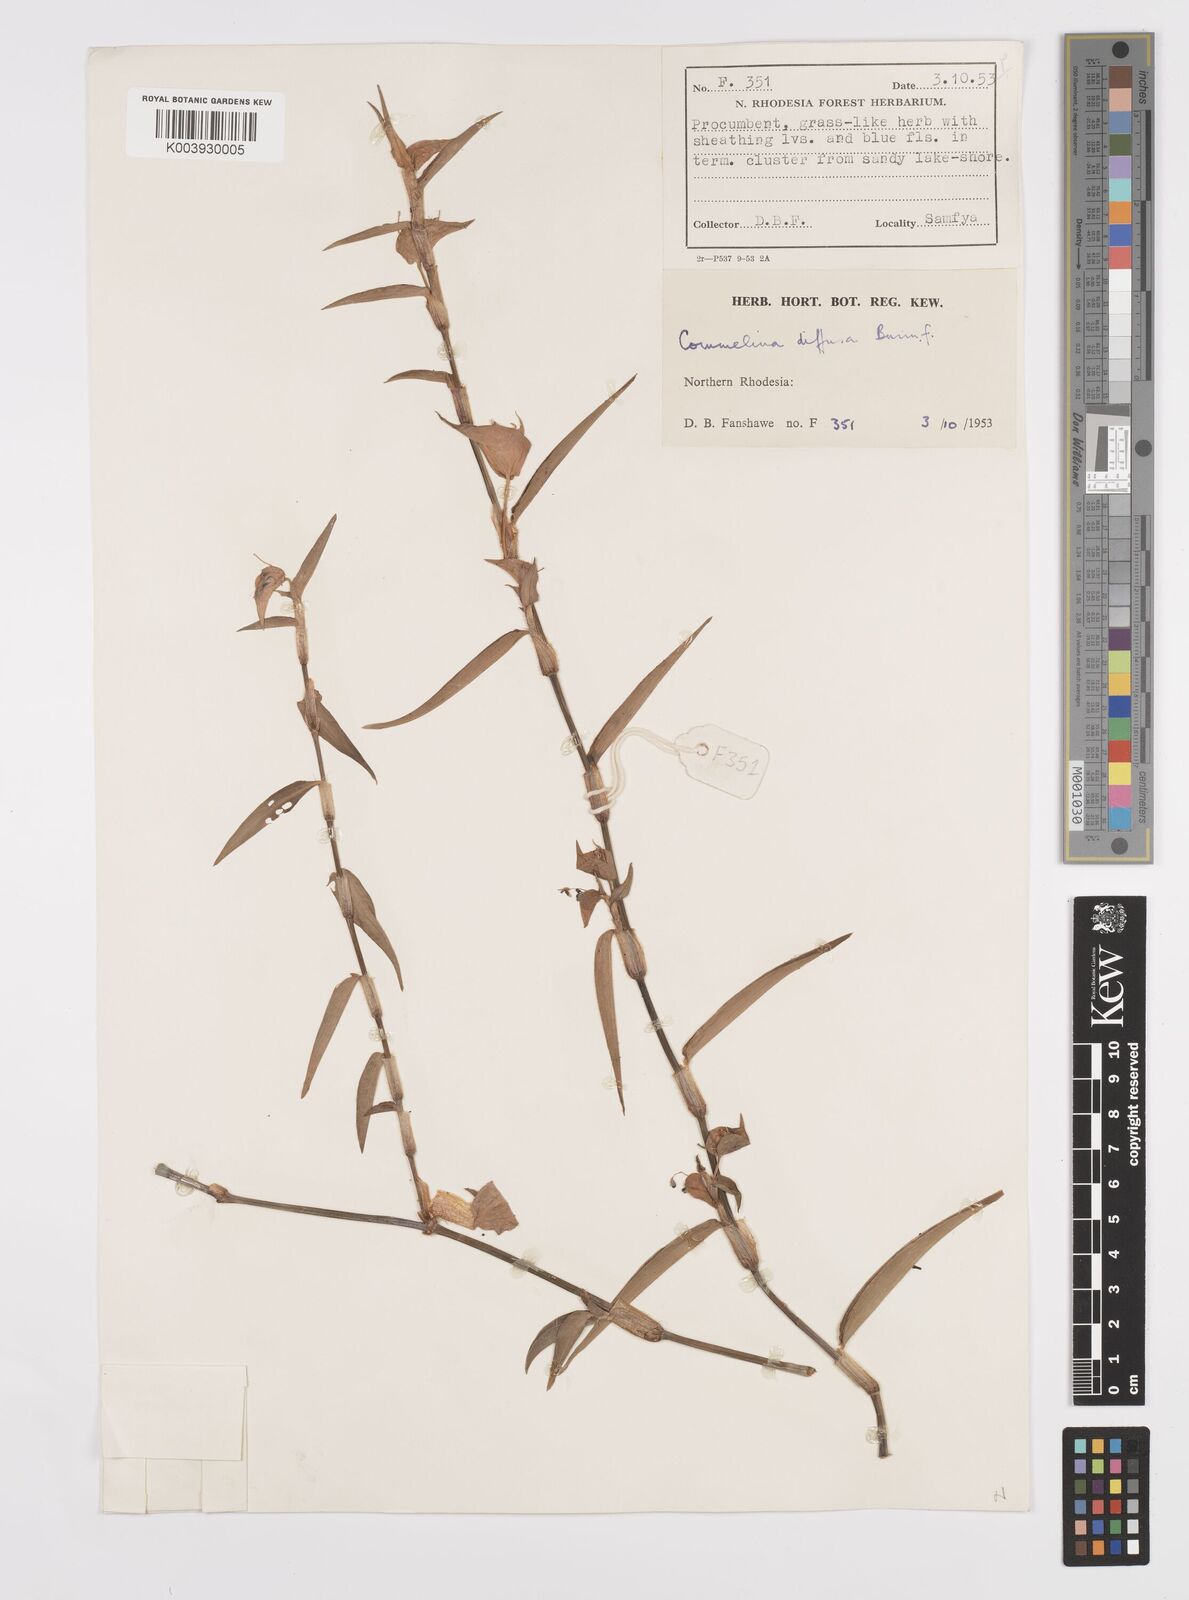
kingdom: Plantae
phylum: Tracheophyta
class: Liliopsida
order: Commelinales
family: Commelinaceae
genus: Commelina
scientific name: Commelina diffusa
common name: Climbing dayflower
